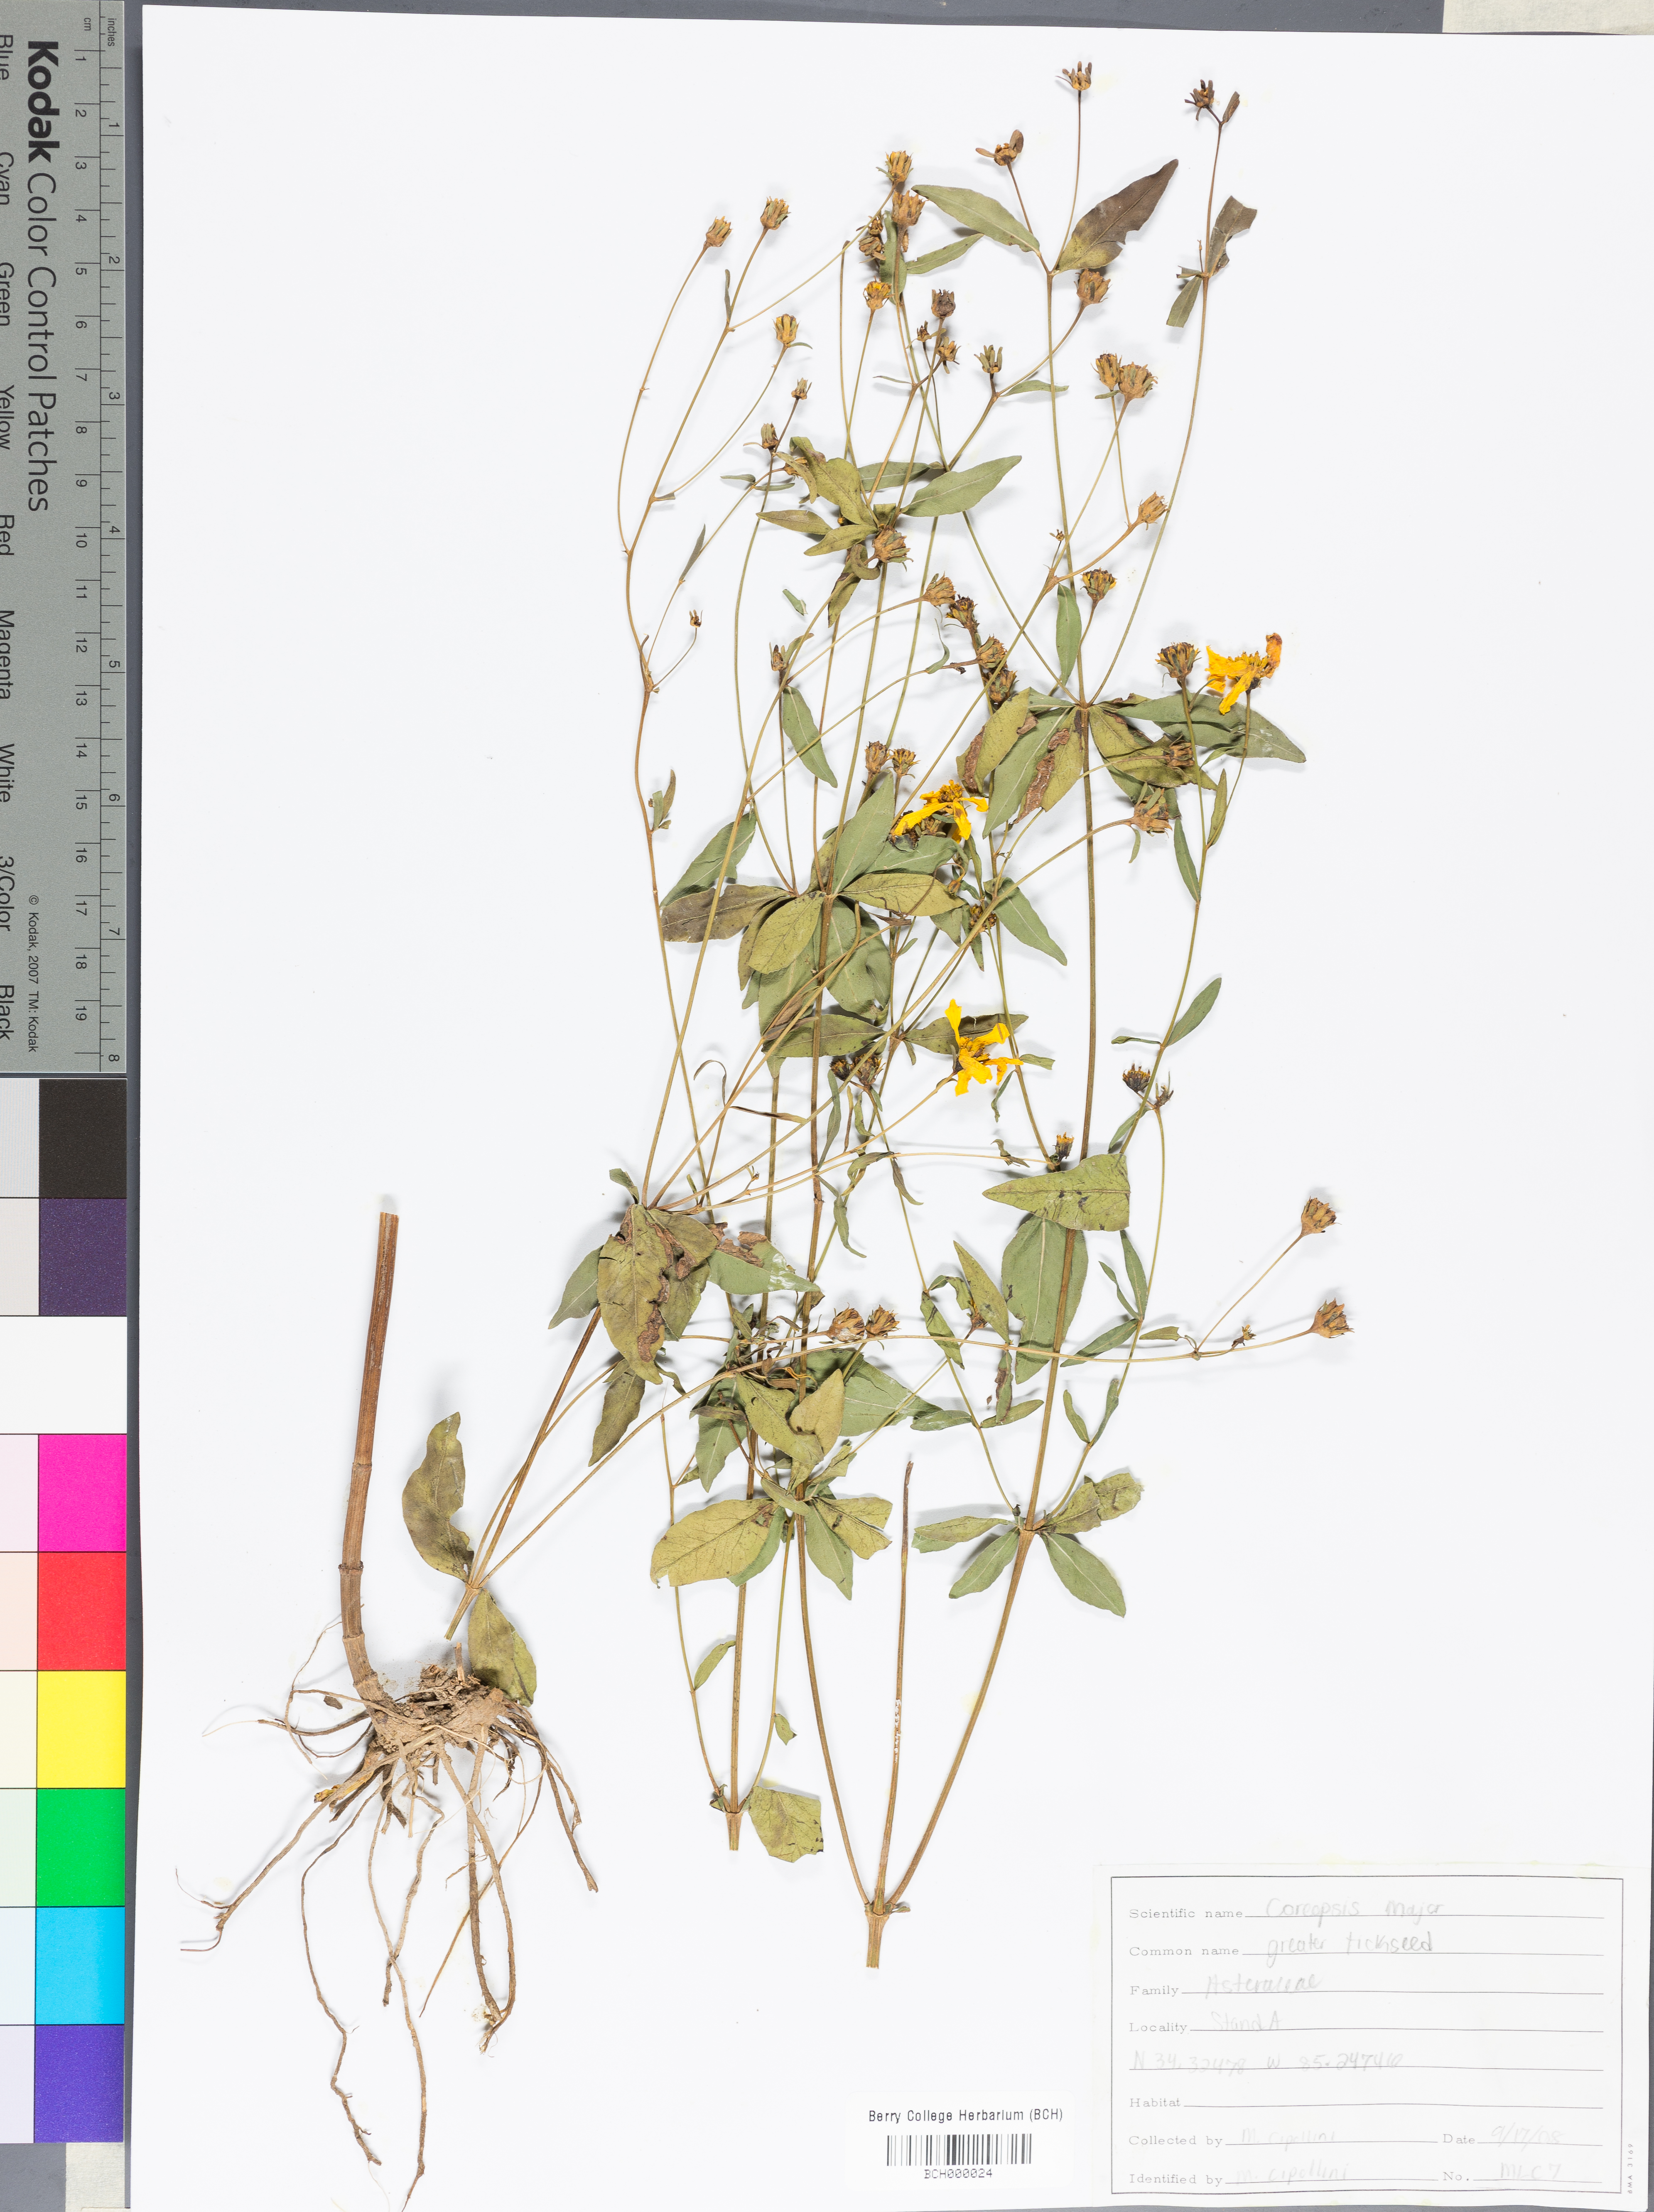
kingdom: Plantae
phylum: Tracheophyta
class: Magnoliopsida
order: Asterales
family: Asteraceae
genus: Coreopsis
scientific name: Coreopsis major
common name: Forest tickseed
